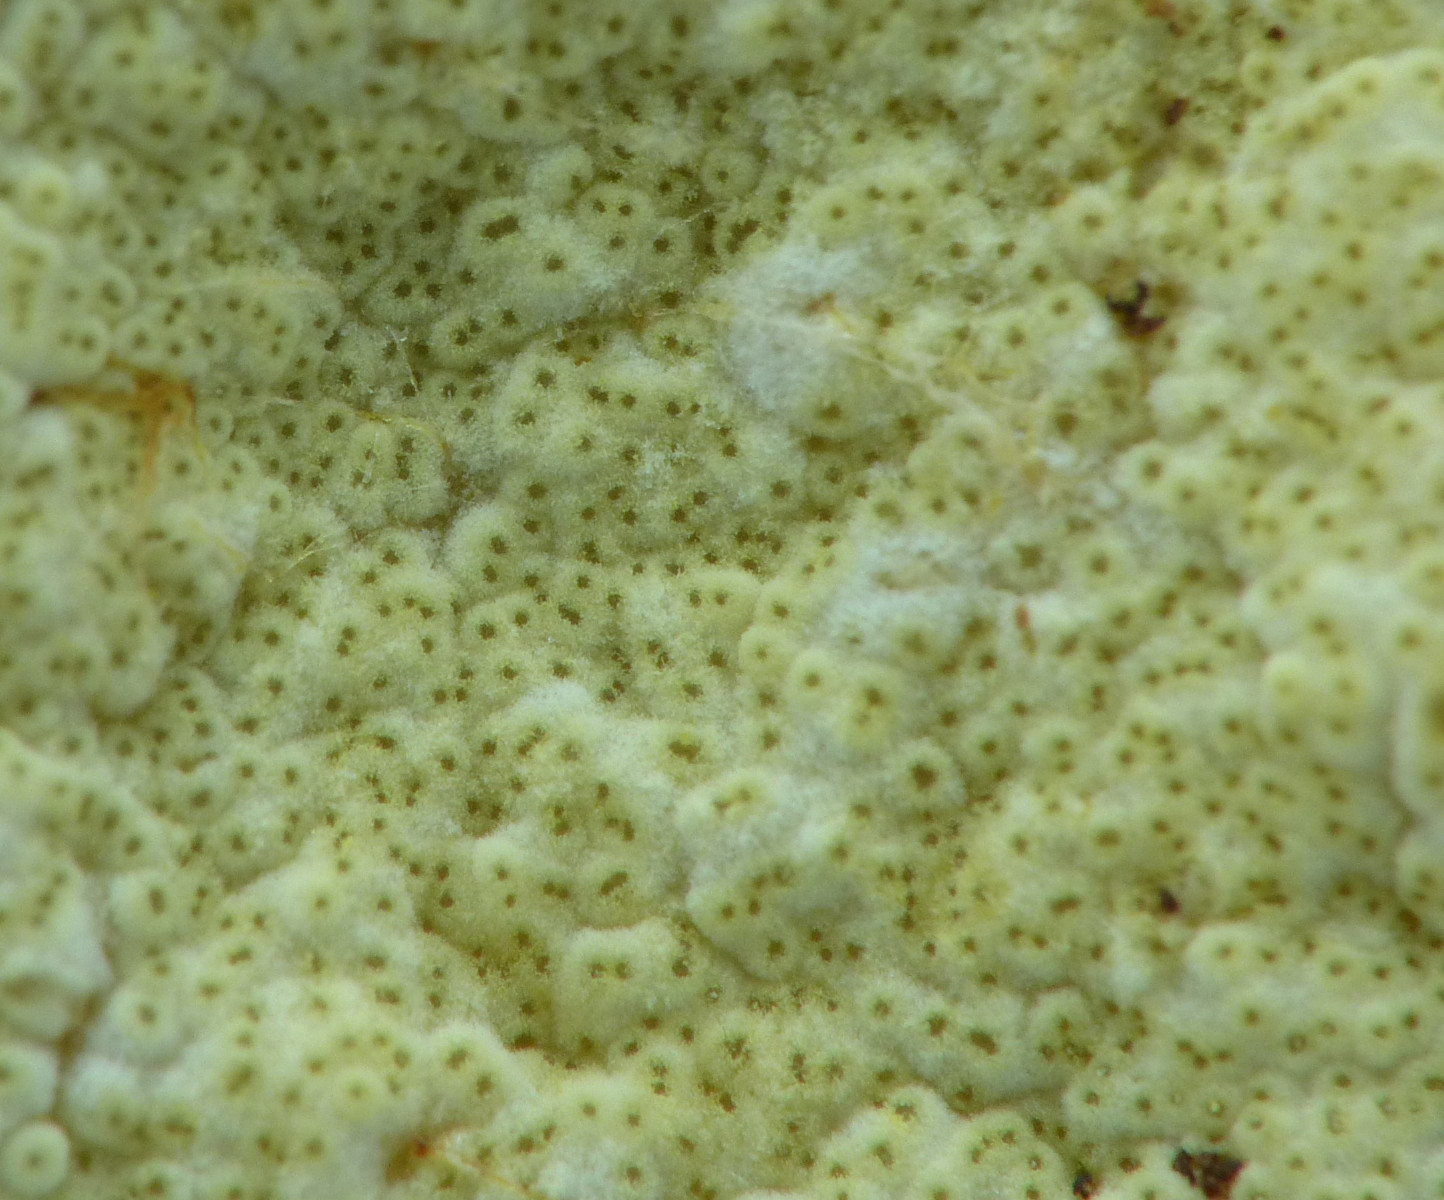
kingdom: Fungi
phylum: Ascomycota
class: Sordariomycetes
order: Hypocreales
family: Hypocreaceae
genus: Trichoderma
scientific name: Trichoderma pulvinatum
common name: snyltende kødkerne
